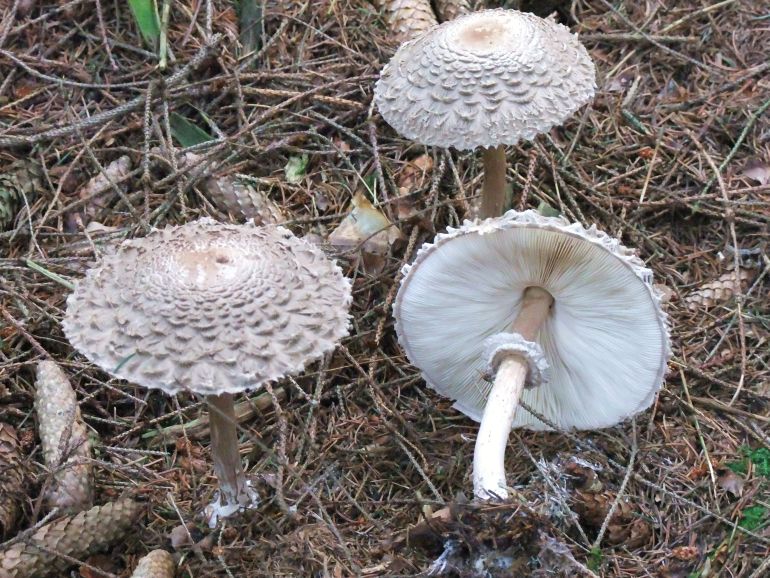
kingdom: Fungi
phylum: Basidiomycota
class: Agaricomycetes
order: Agaricales
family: Agaricaceae
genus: Chlorophyllum
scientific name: Chlorophyllum olivieri
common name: almindelig rabarberhat
